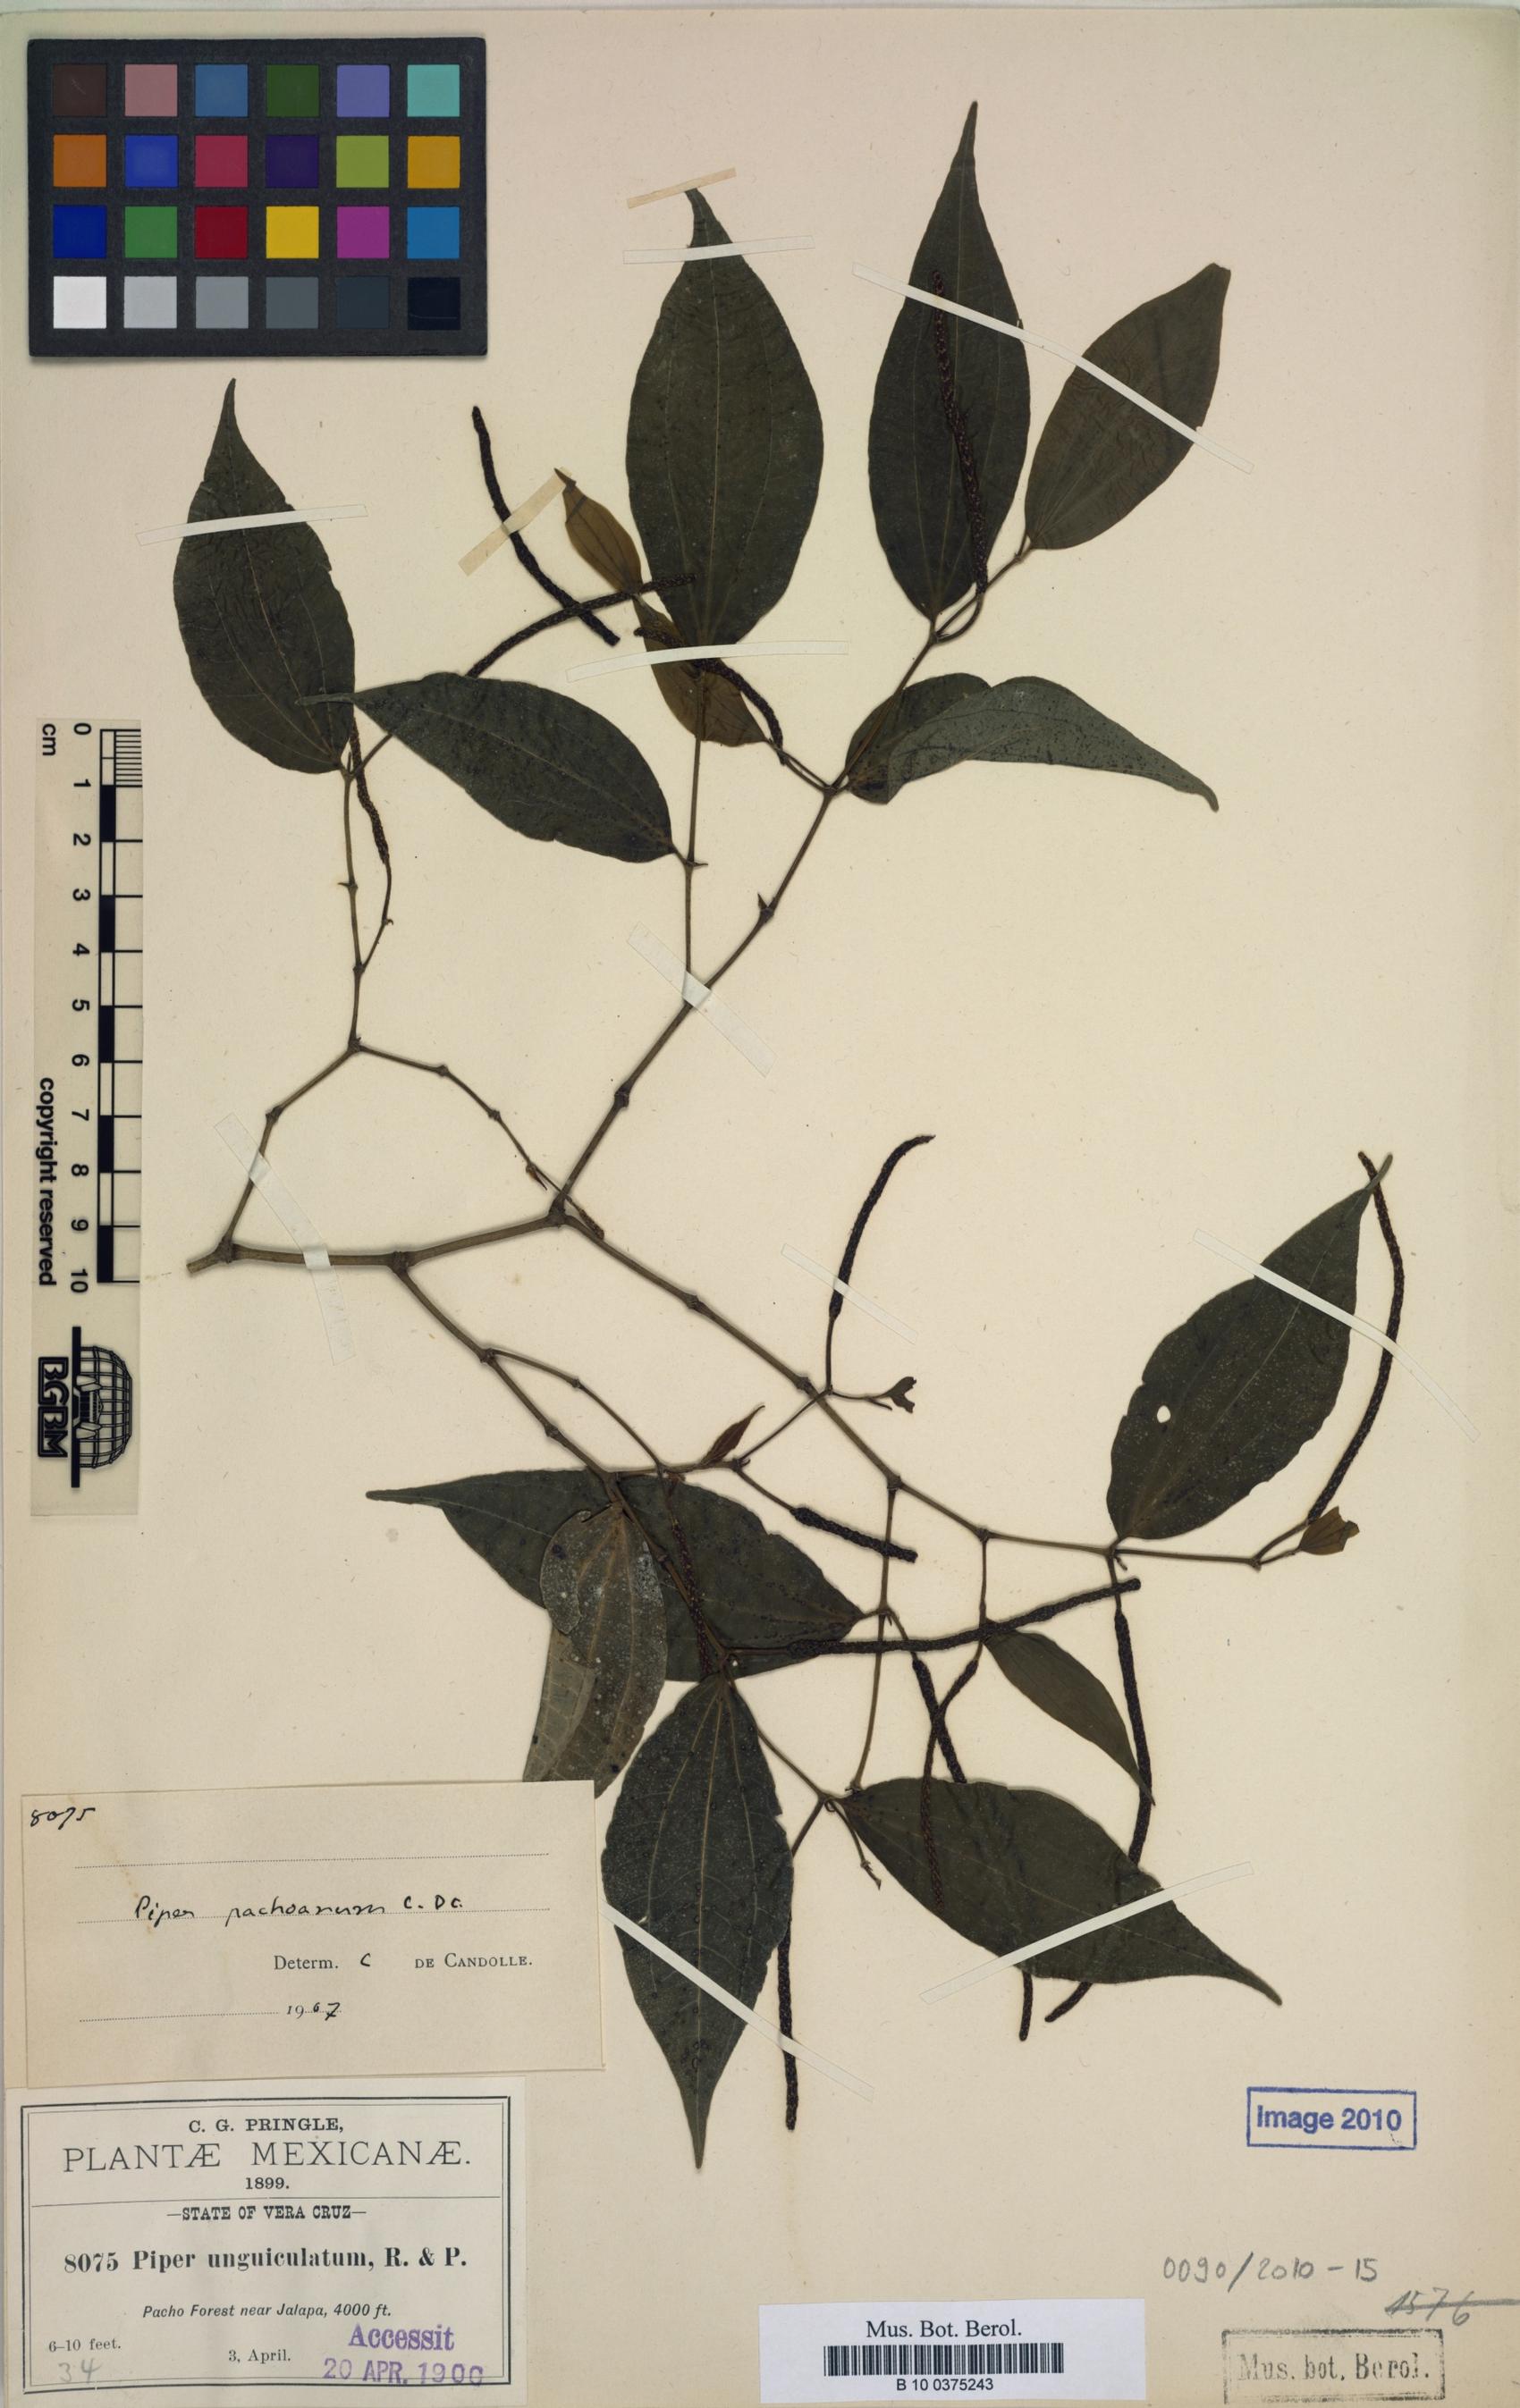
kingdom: Plantae
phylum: Tracheophyta
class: Magnoliopsida
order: Piperales
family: Piperaceae
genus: Piper
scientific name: Piper pachoanum
